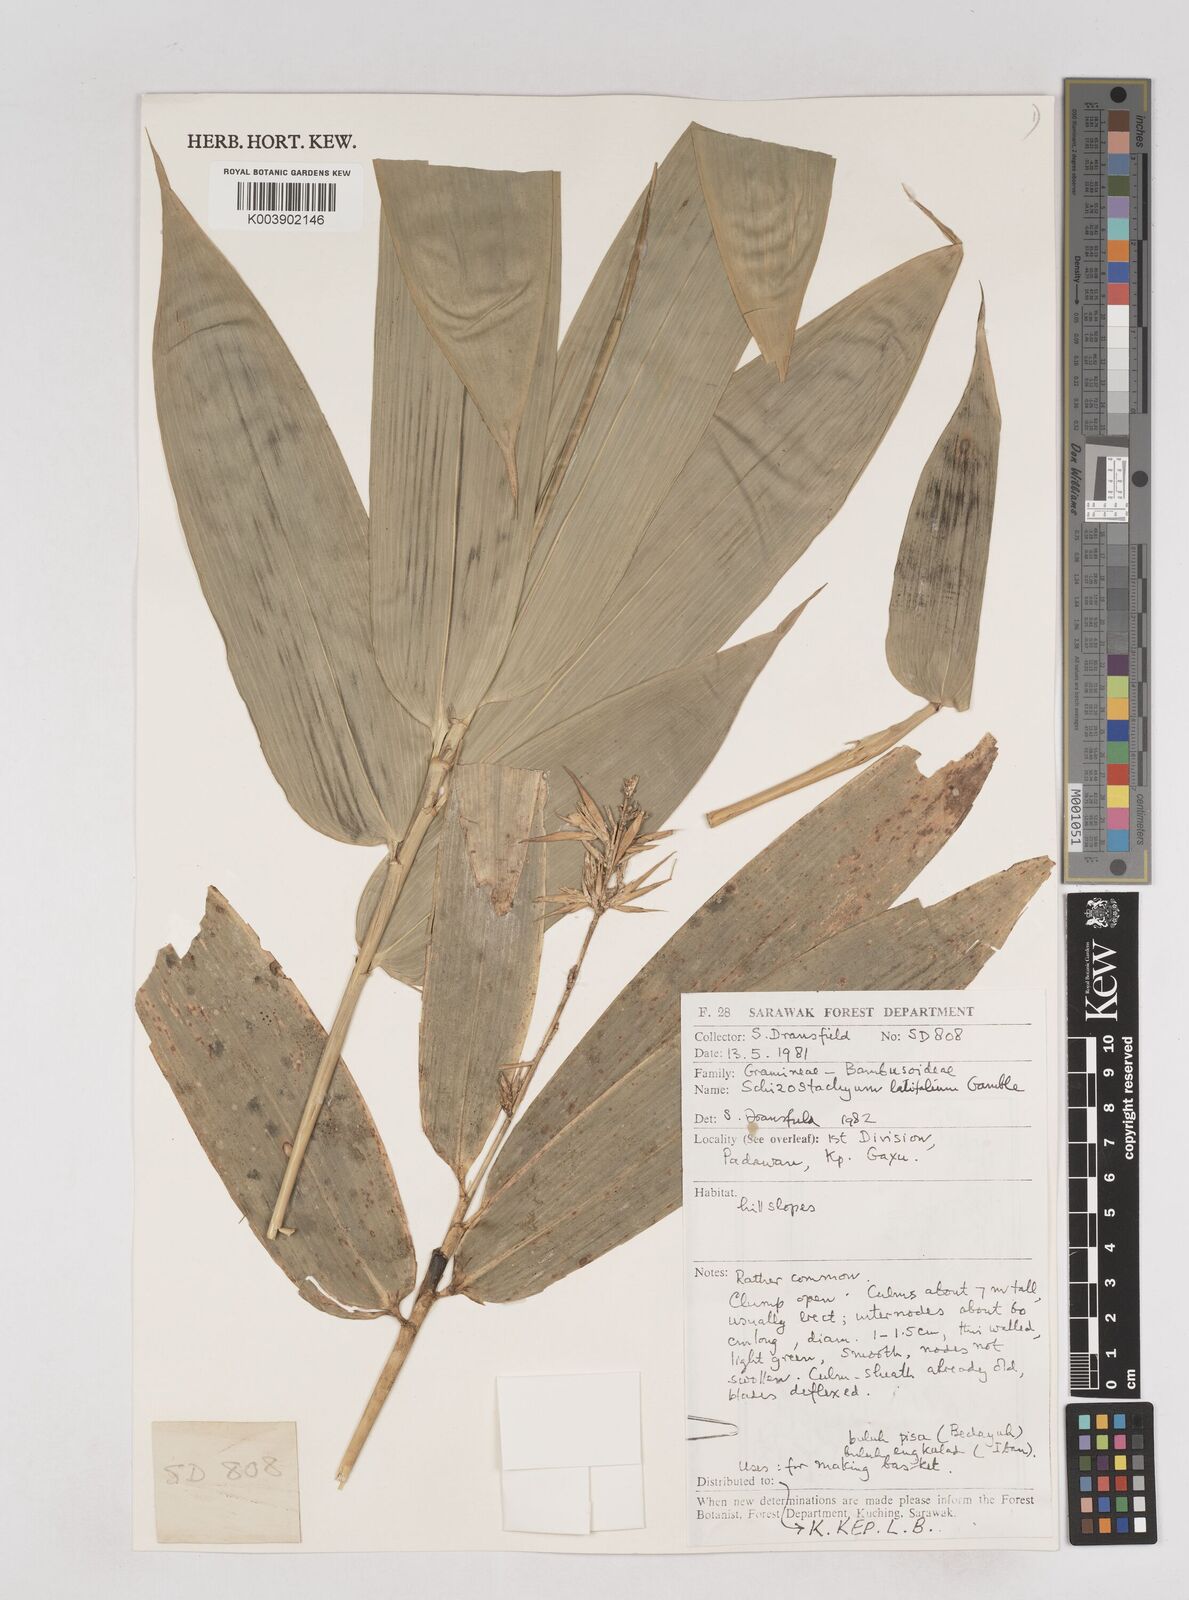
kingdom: Plantae
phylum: Tracheophyta
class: Liliopsida
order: Poales
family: Poaceae
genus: Schizostachyum
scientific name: Schizostachyum
